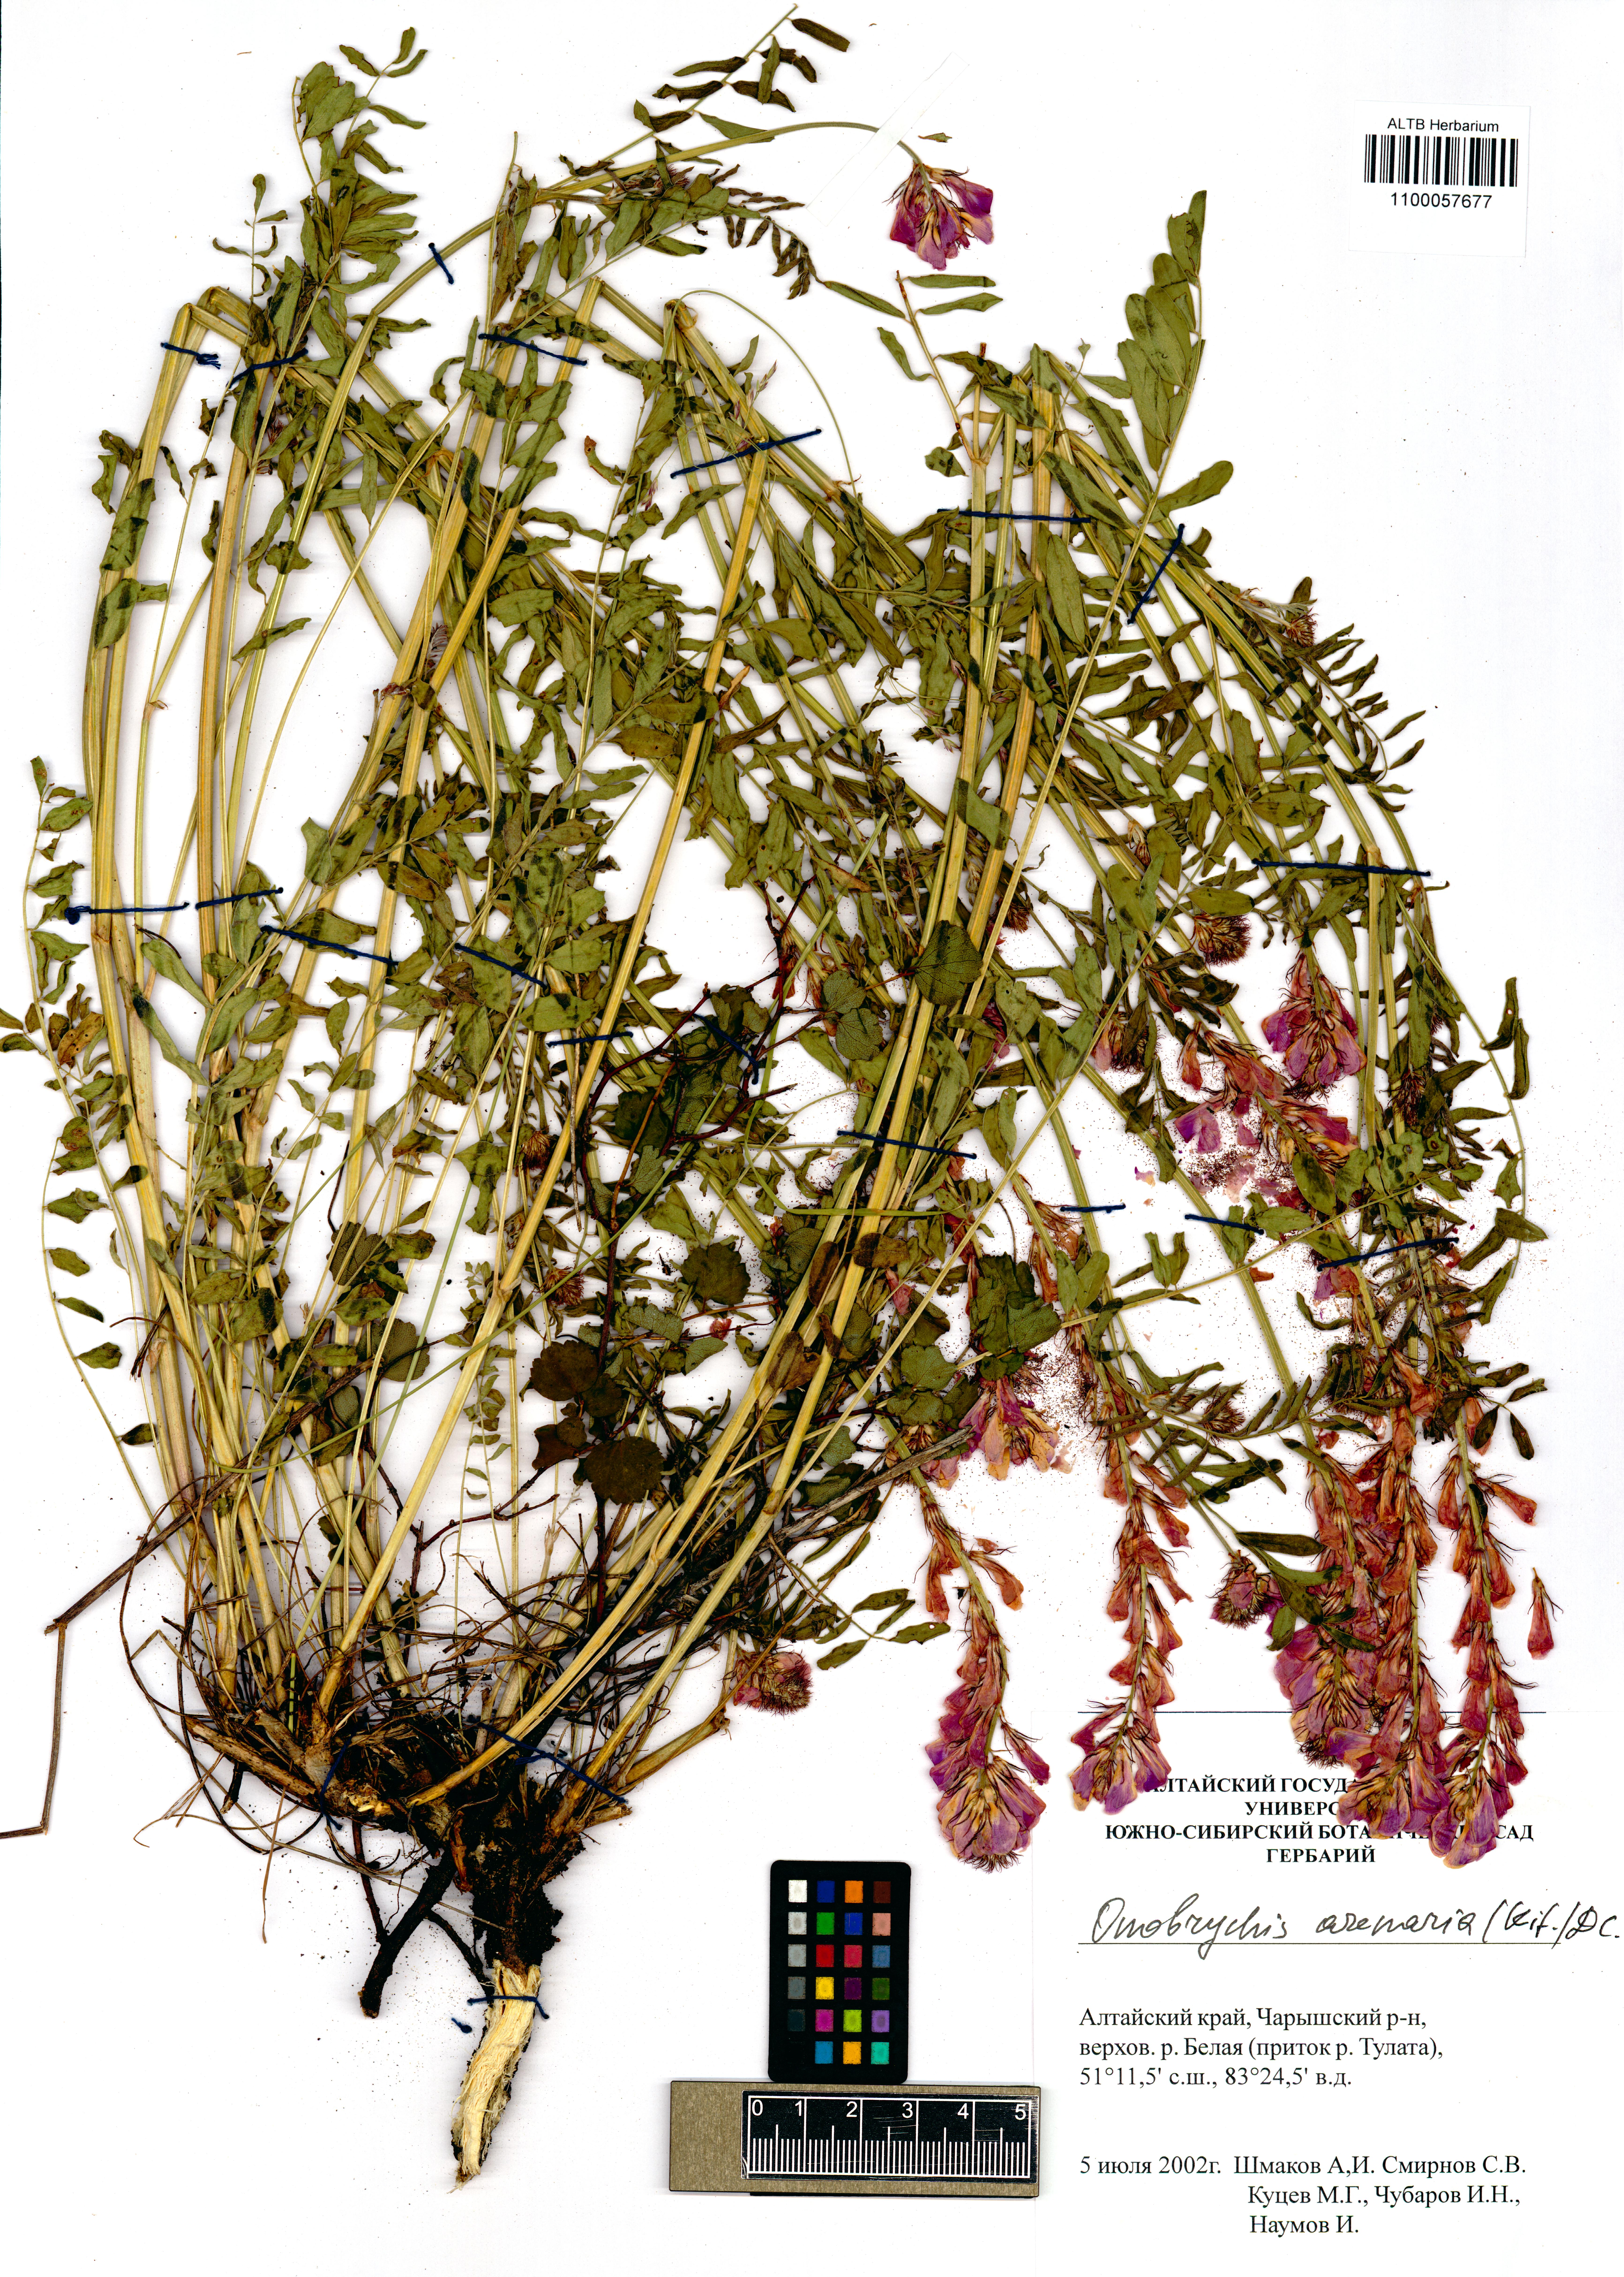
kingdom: Plantae
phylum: Tracheophyta
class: Magnoliopsida
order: Fabales
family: Fabaceae
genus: Onobrychis
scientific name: Onobrychis arenaria
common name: Sand esparcet
